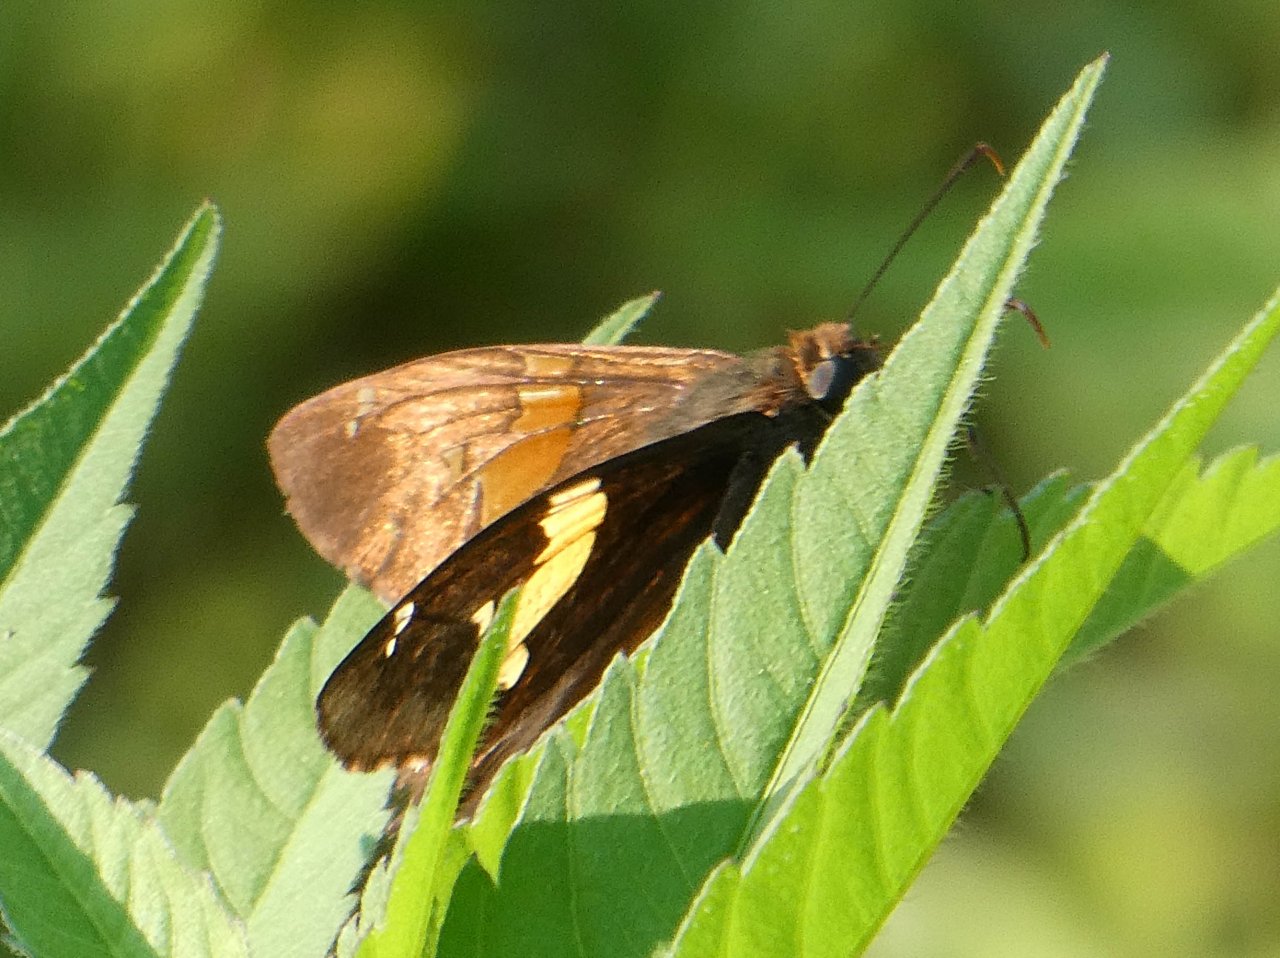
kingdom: Animalia
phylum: Arthropoda
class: Insecta
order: Lepidoptera
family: Hesperiidae
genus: Epargyreus
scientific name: Epargyreus clarus
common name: Silver-spotted Skipper
